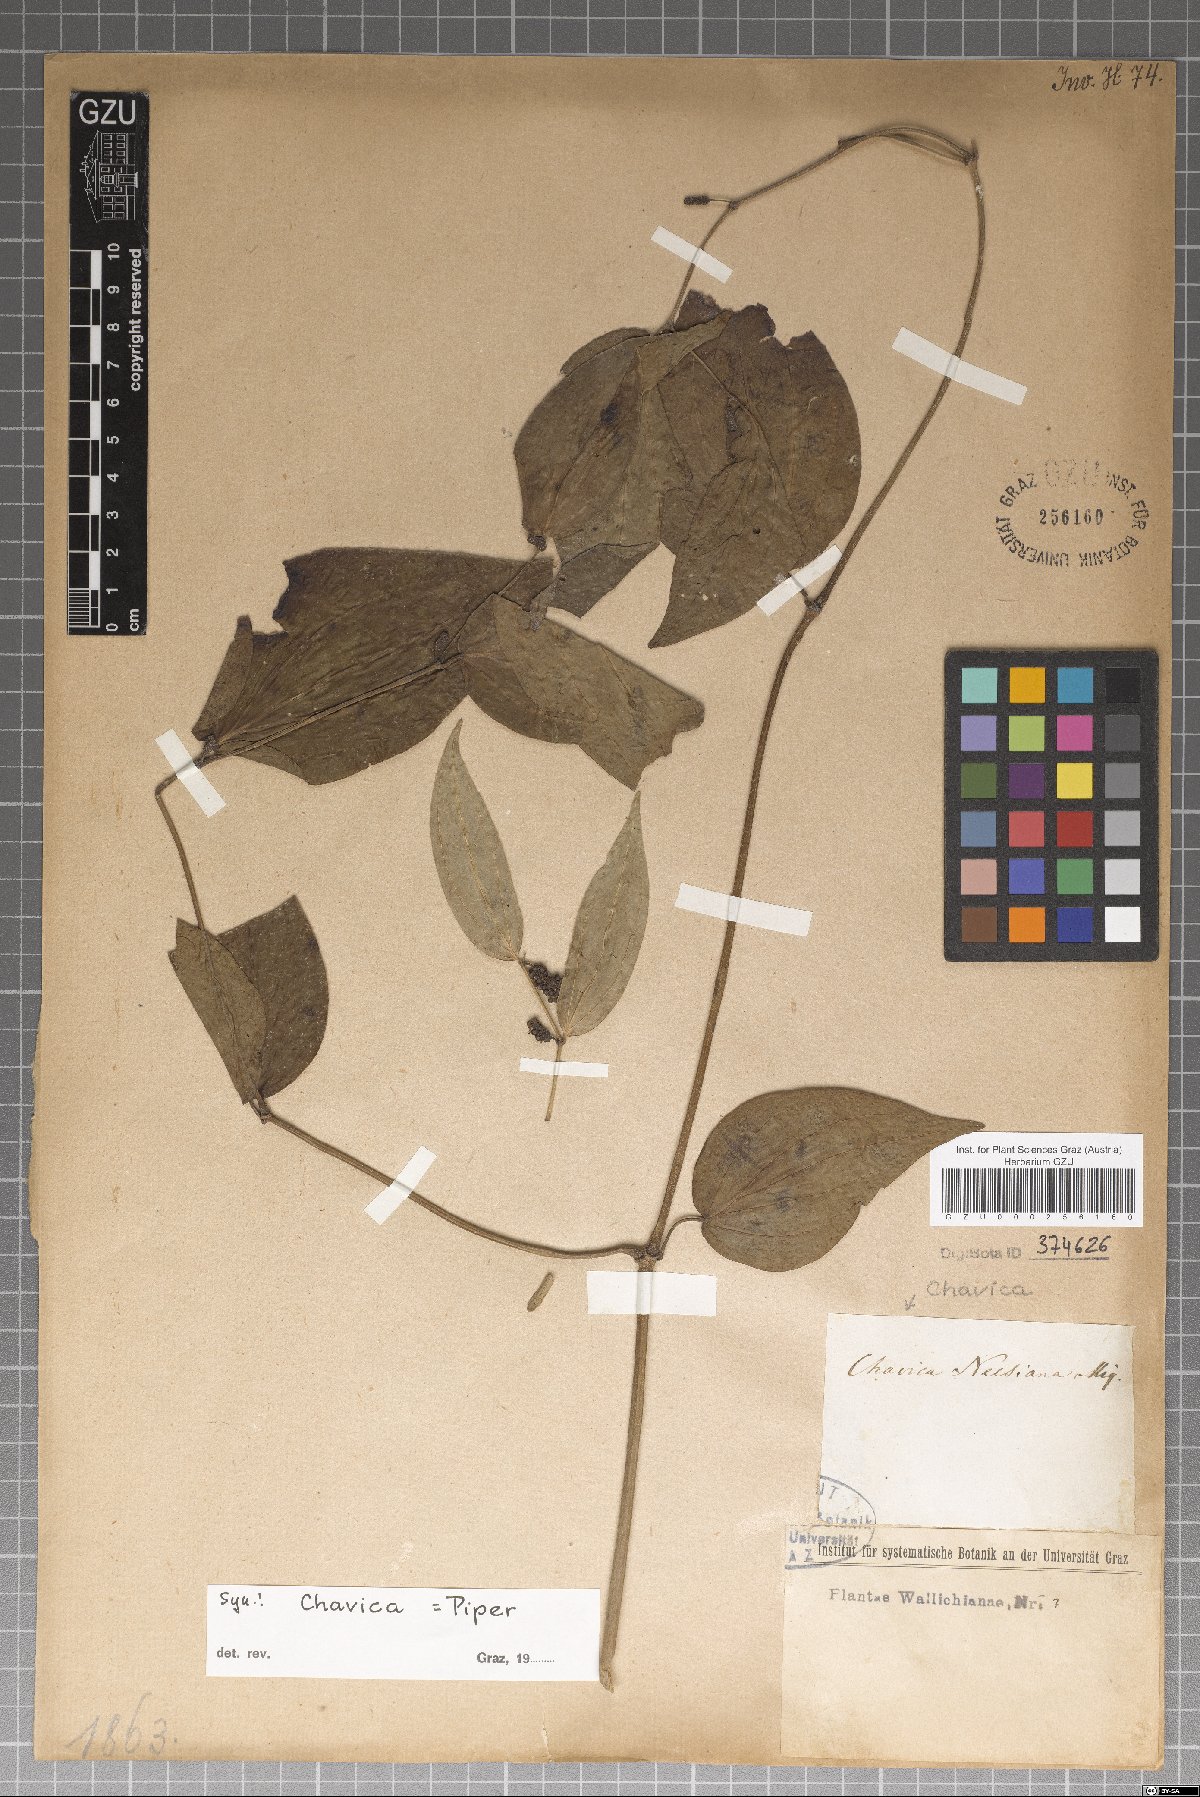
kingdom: Plantae
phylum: Tracheophyta
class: Magnoliopsida
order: Piperales
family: Piperaceae
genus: Piper
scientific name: Piper peepuloides
